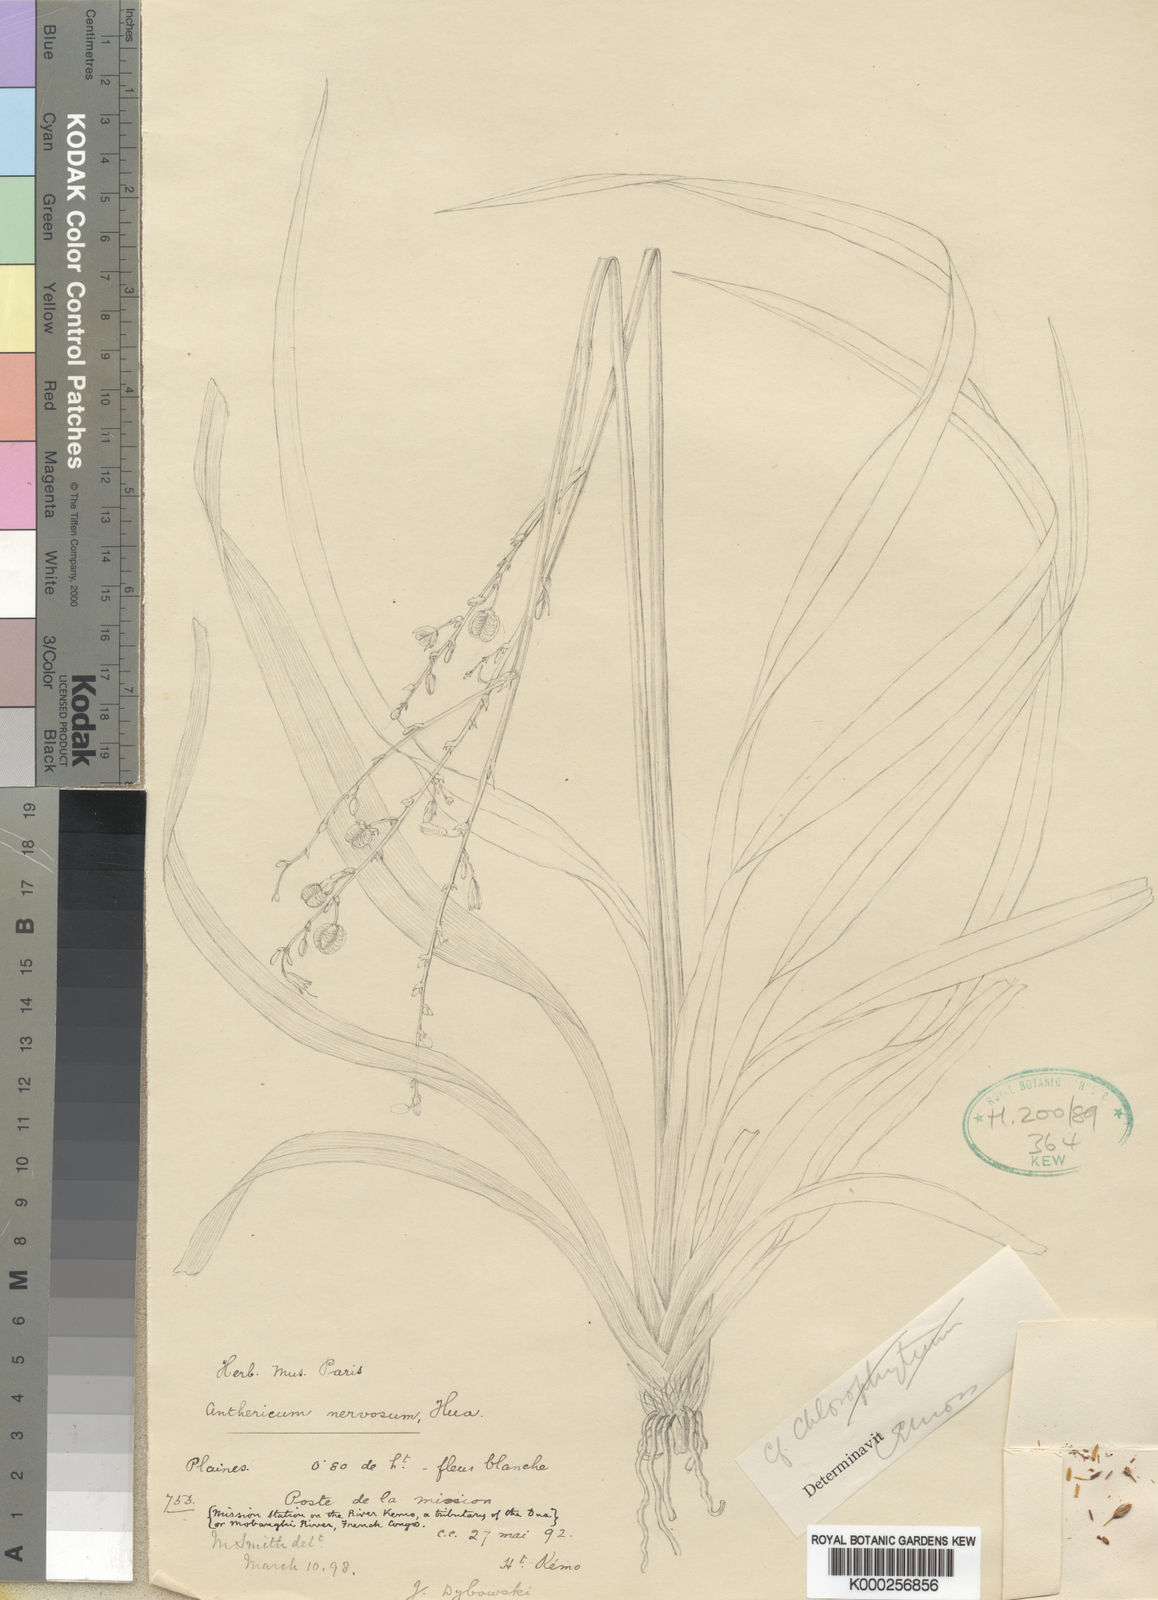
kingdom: Plantae
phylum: Tracheophyta
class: Liliopsida
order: Asparagales
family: Asparagaceae
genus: Chlorophytum
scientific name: Chlorophytum limosum
